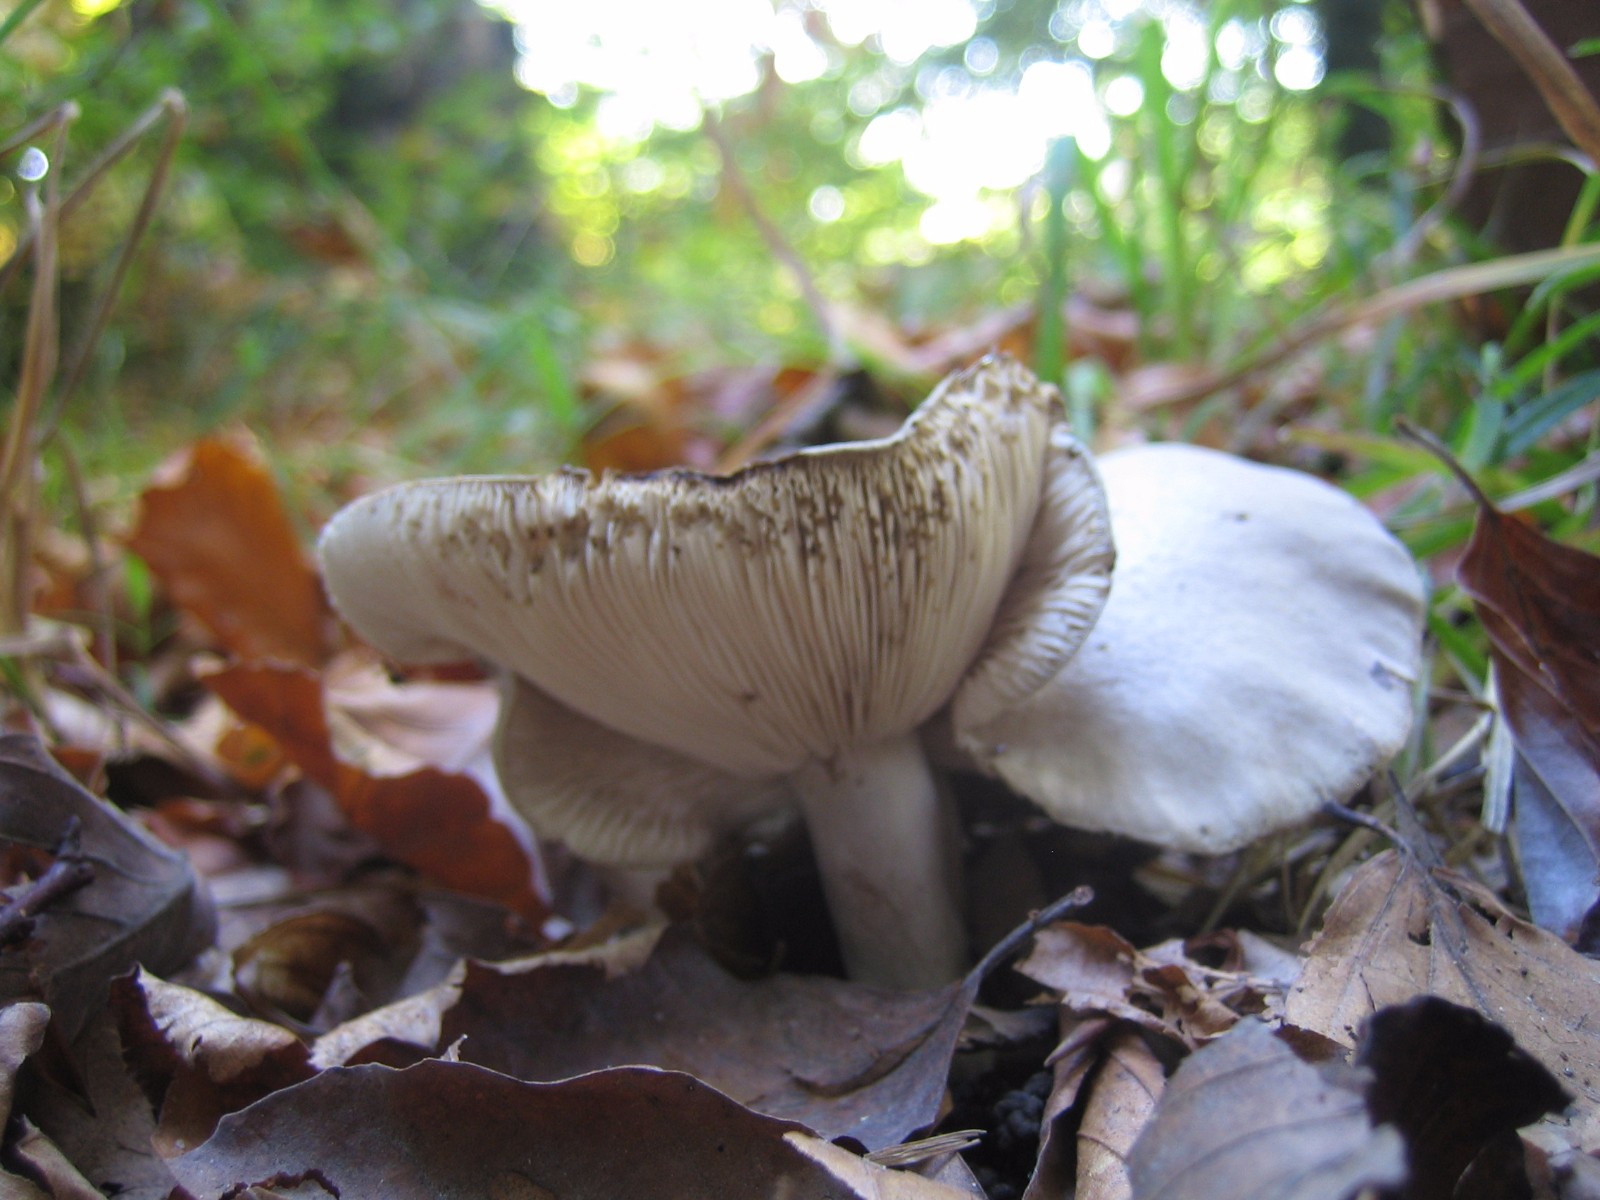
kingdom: Fungi
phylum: Basidiomycota
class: Agaricomycetes
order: Russulales
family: Russulaceae
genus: Lactarius
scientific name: Lactarius
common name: mælkehat
